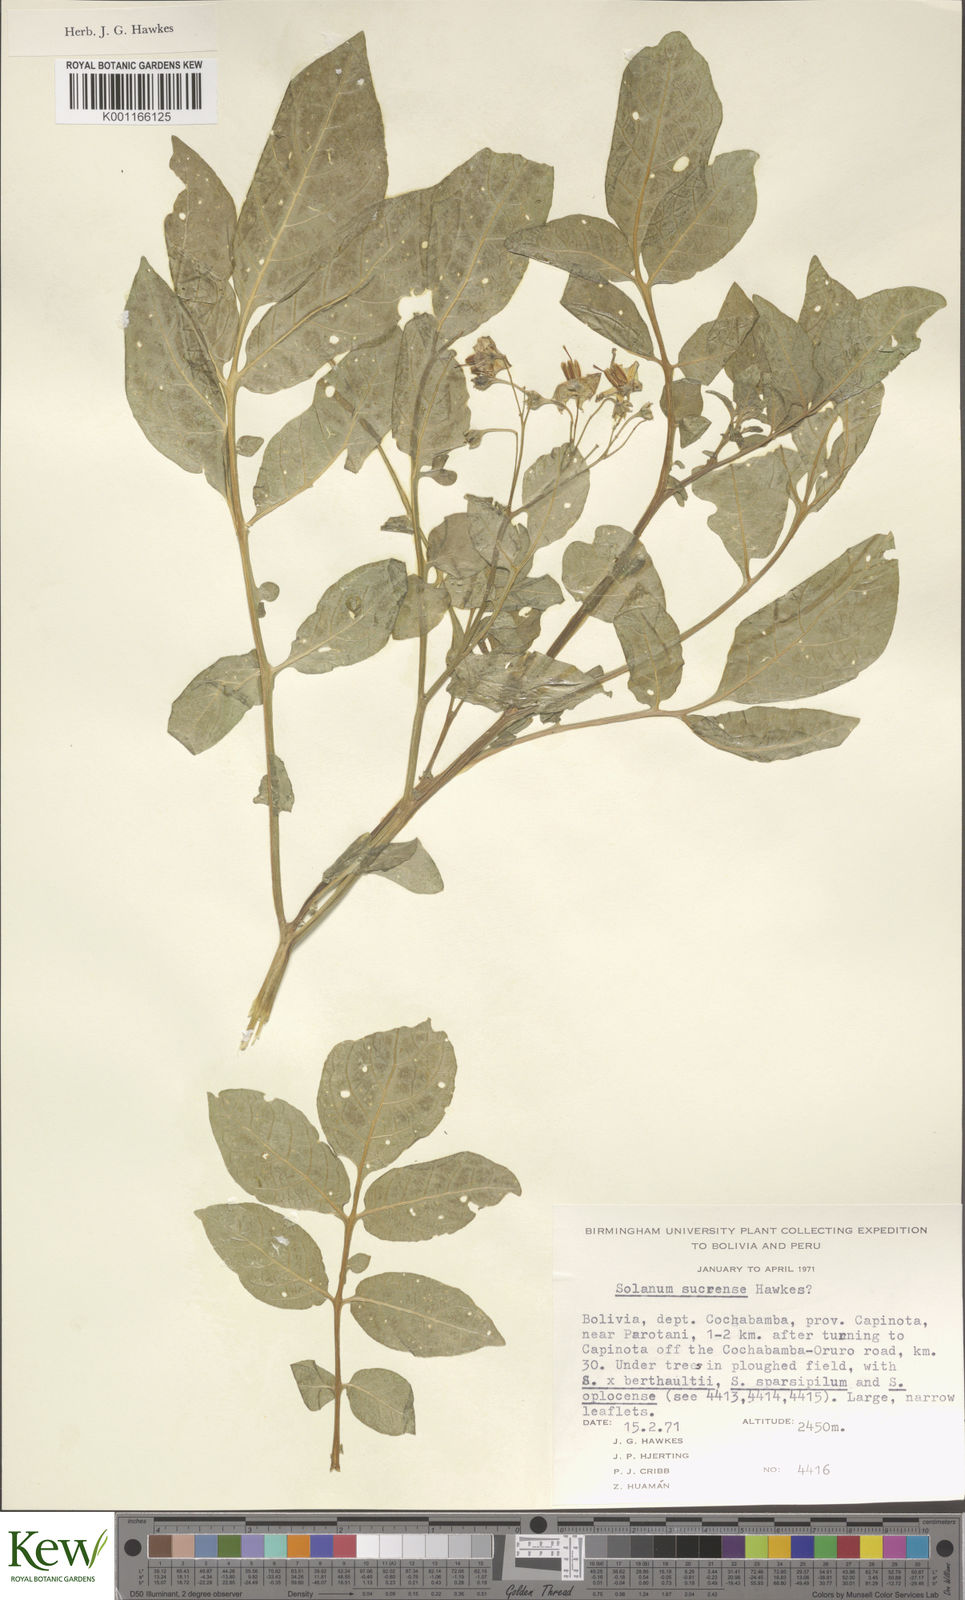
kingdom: Plantae
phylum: Tracheophyta
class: Magnoliopsida
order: Solanales
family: Solanaceae
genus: Solanum
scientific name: Solanum brevicaule
